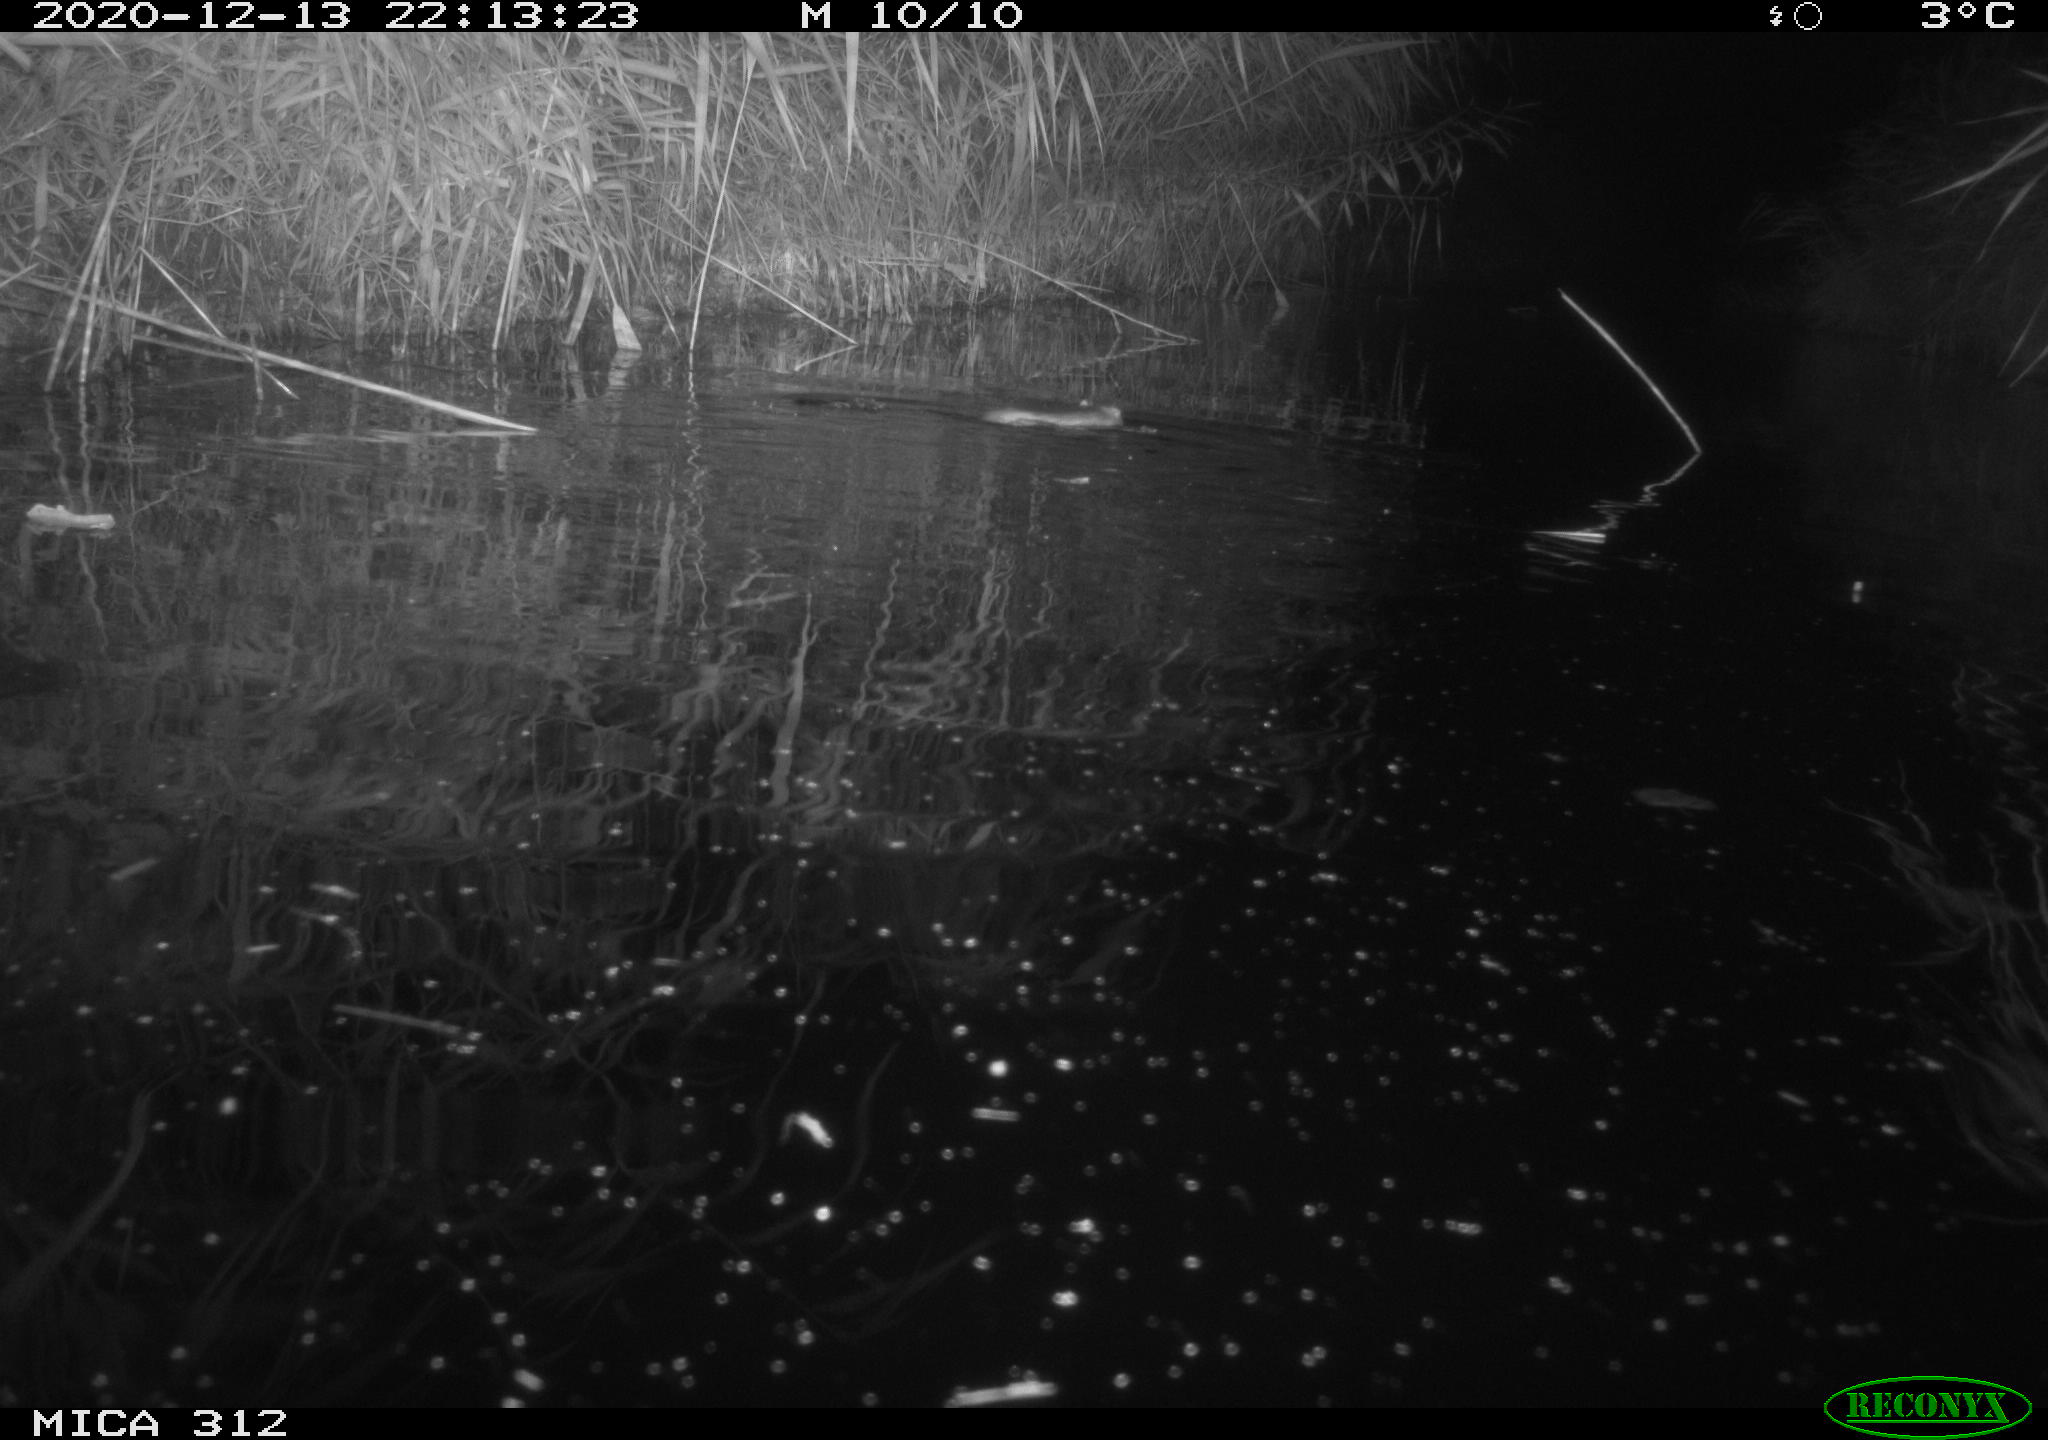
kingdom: Animalia
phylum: Chordata
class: Mammalia
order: Rodentia
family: Muridae
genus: Rattus
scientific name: Rattus norvegicus
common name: Brown rat
